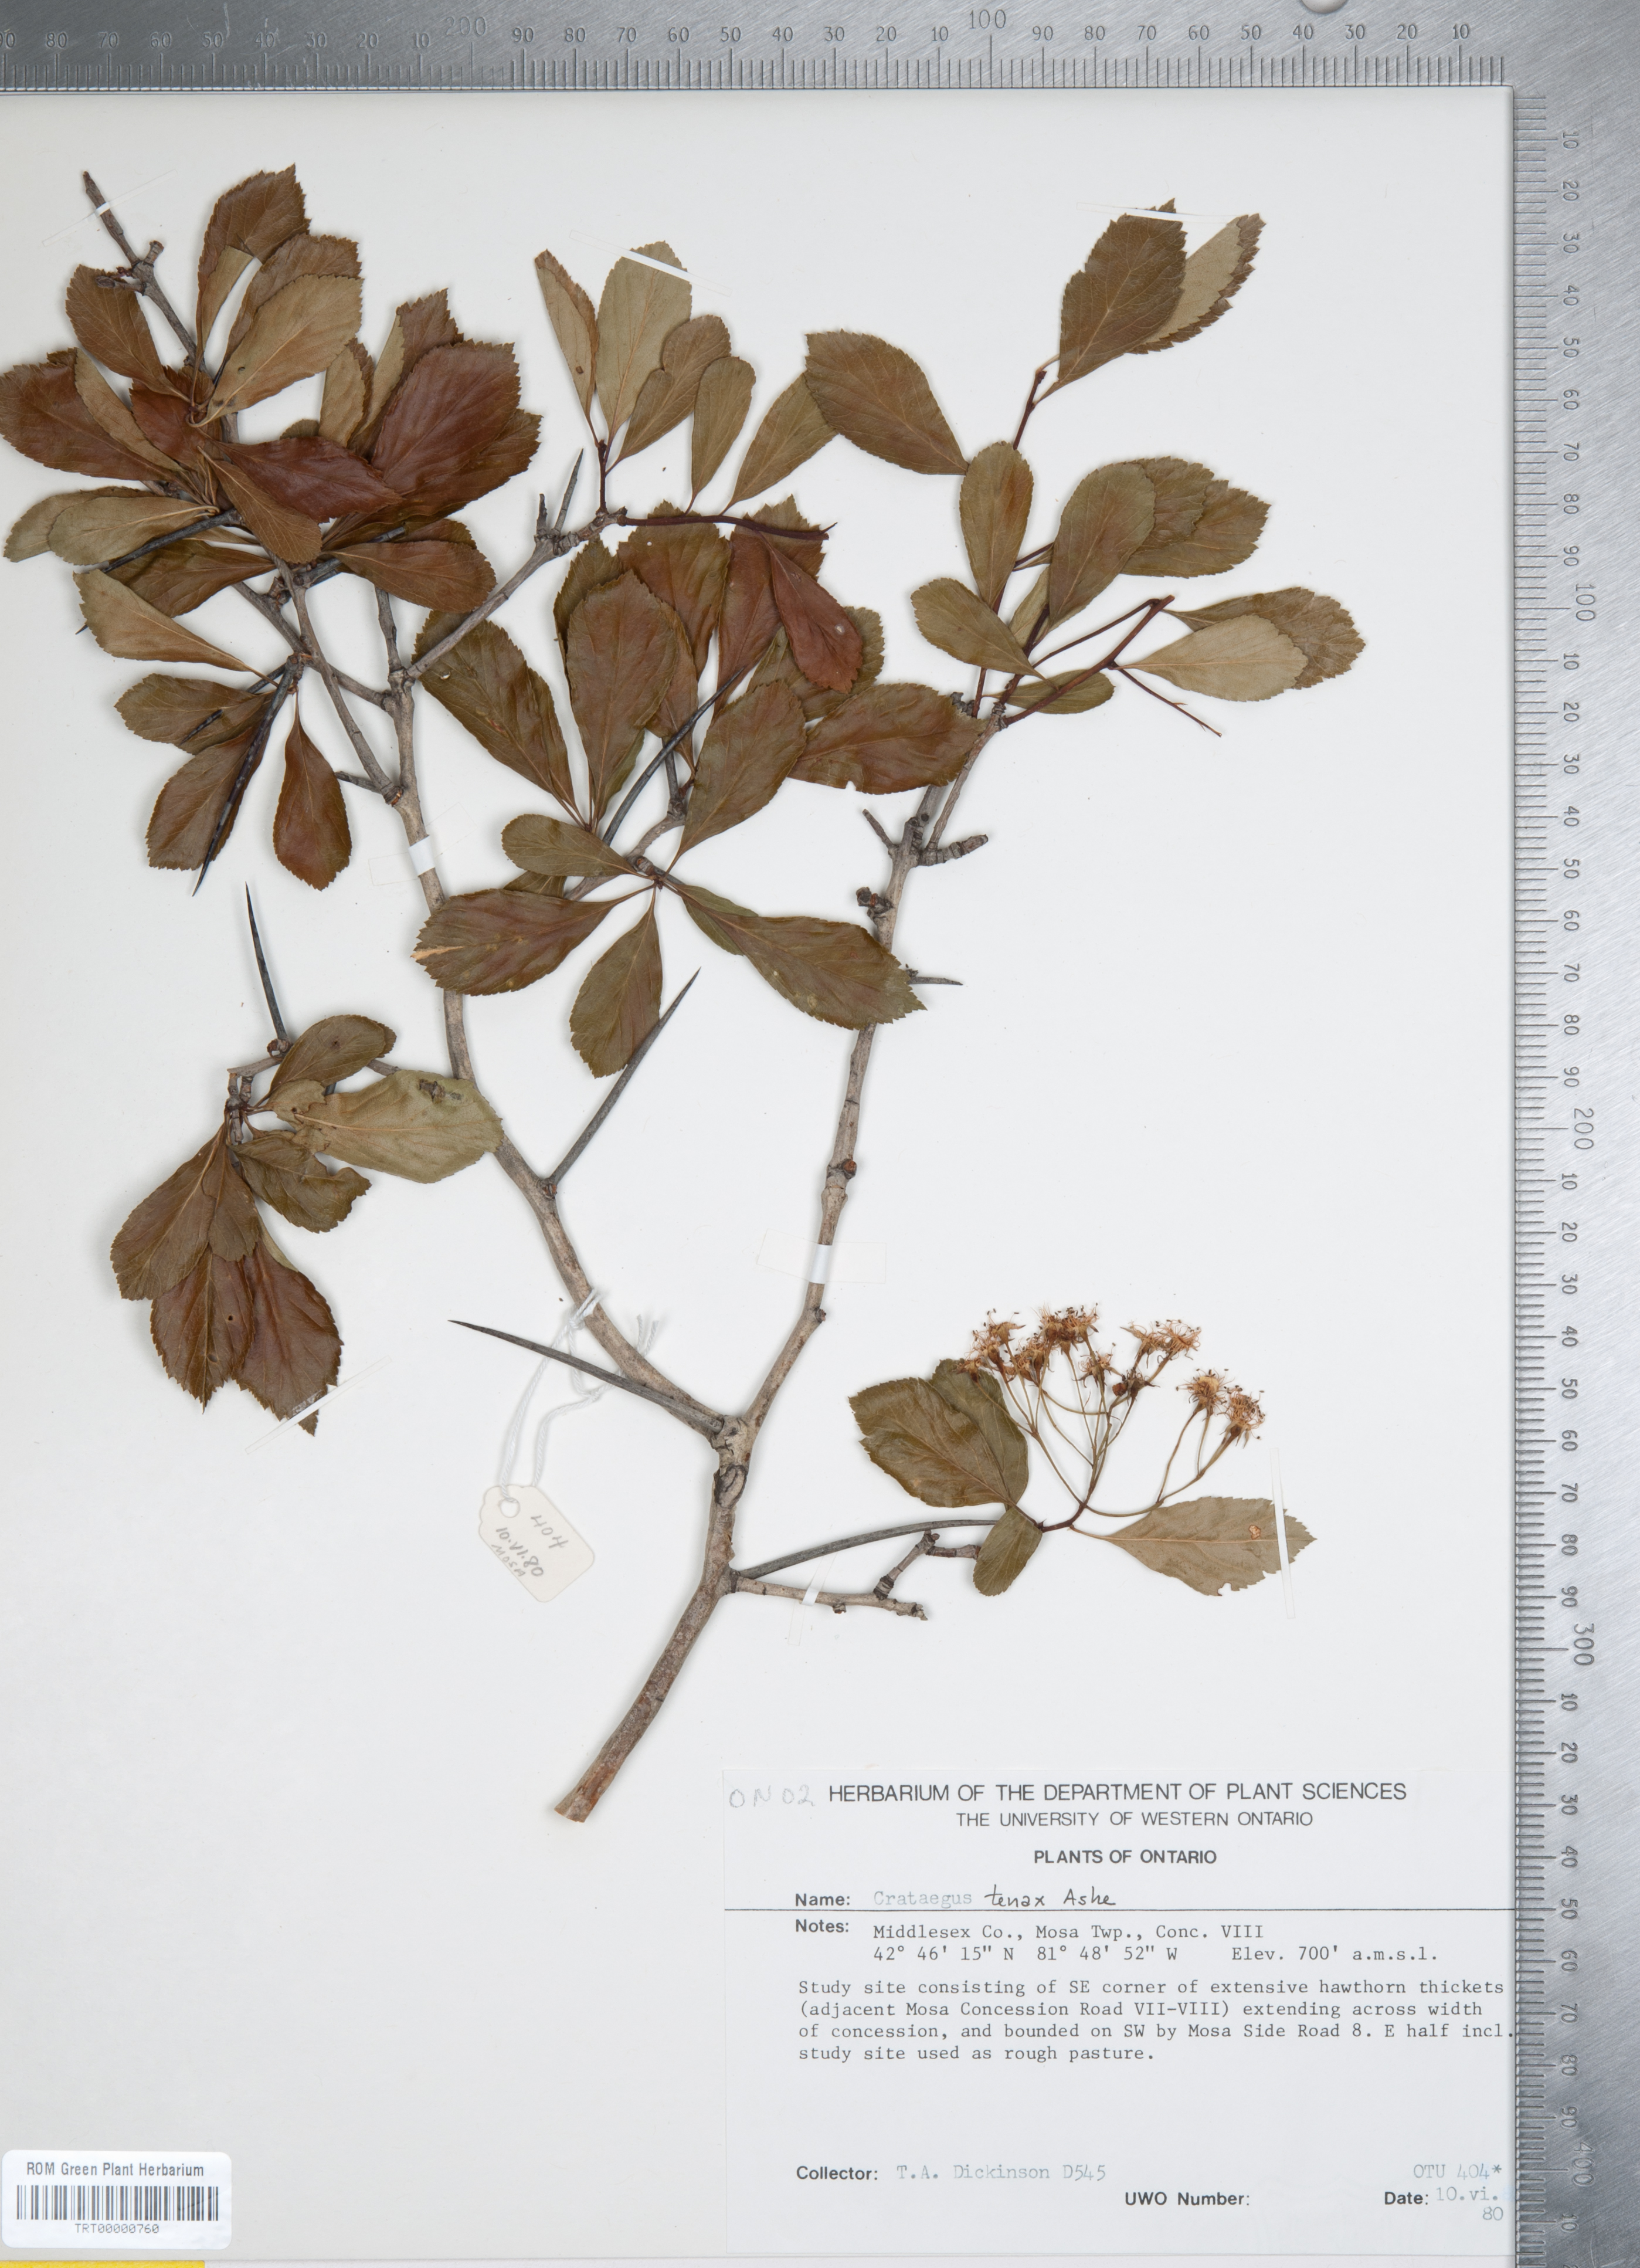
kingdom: Plantae
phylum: Tracheophyta
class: Magnoliopsida
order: Rosales
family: Rosaceae
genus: Crataegus
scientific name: Crataegus crus-galli
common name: Cockspurthorn
